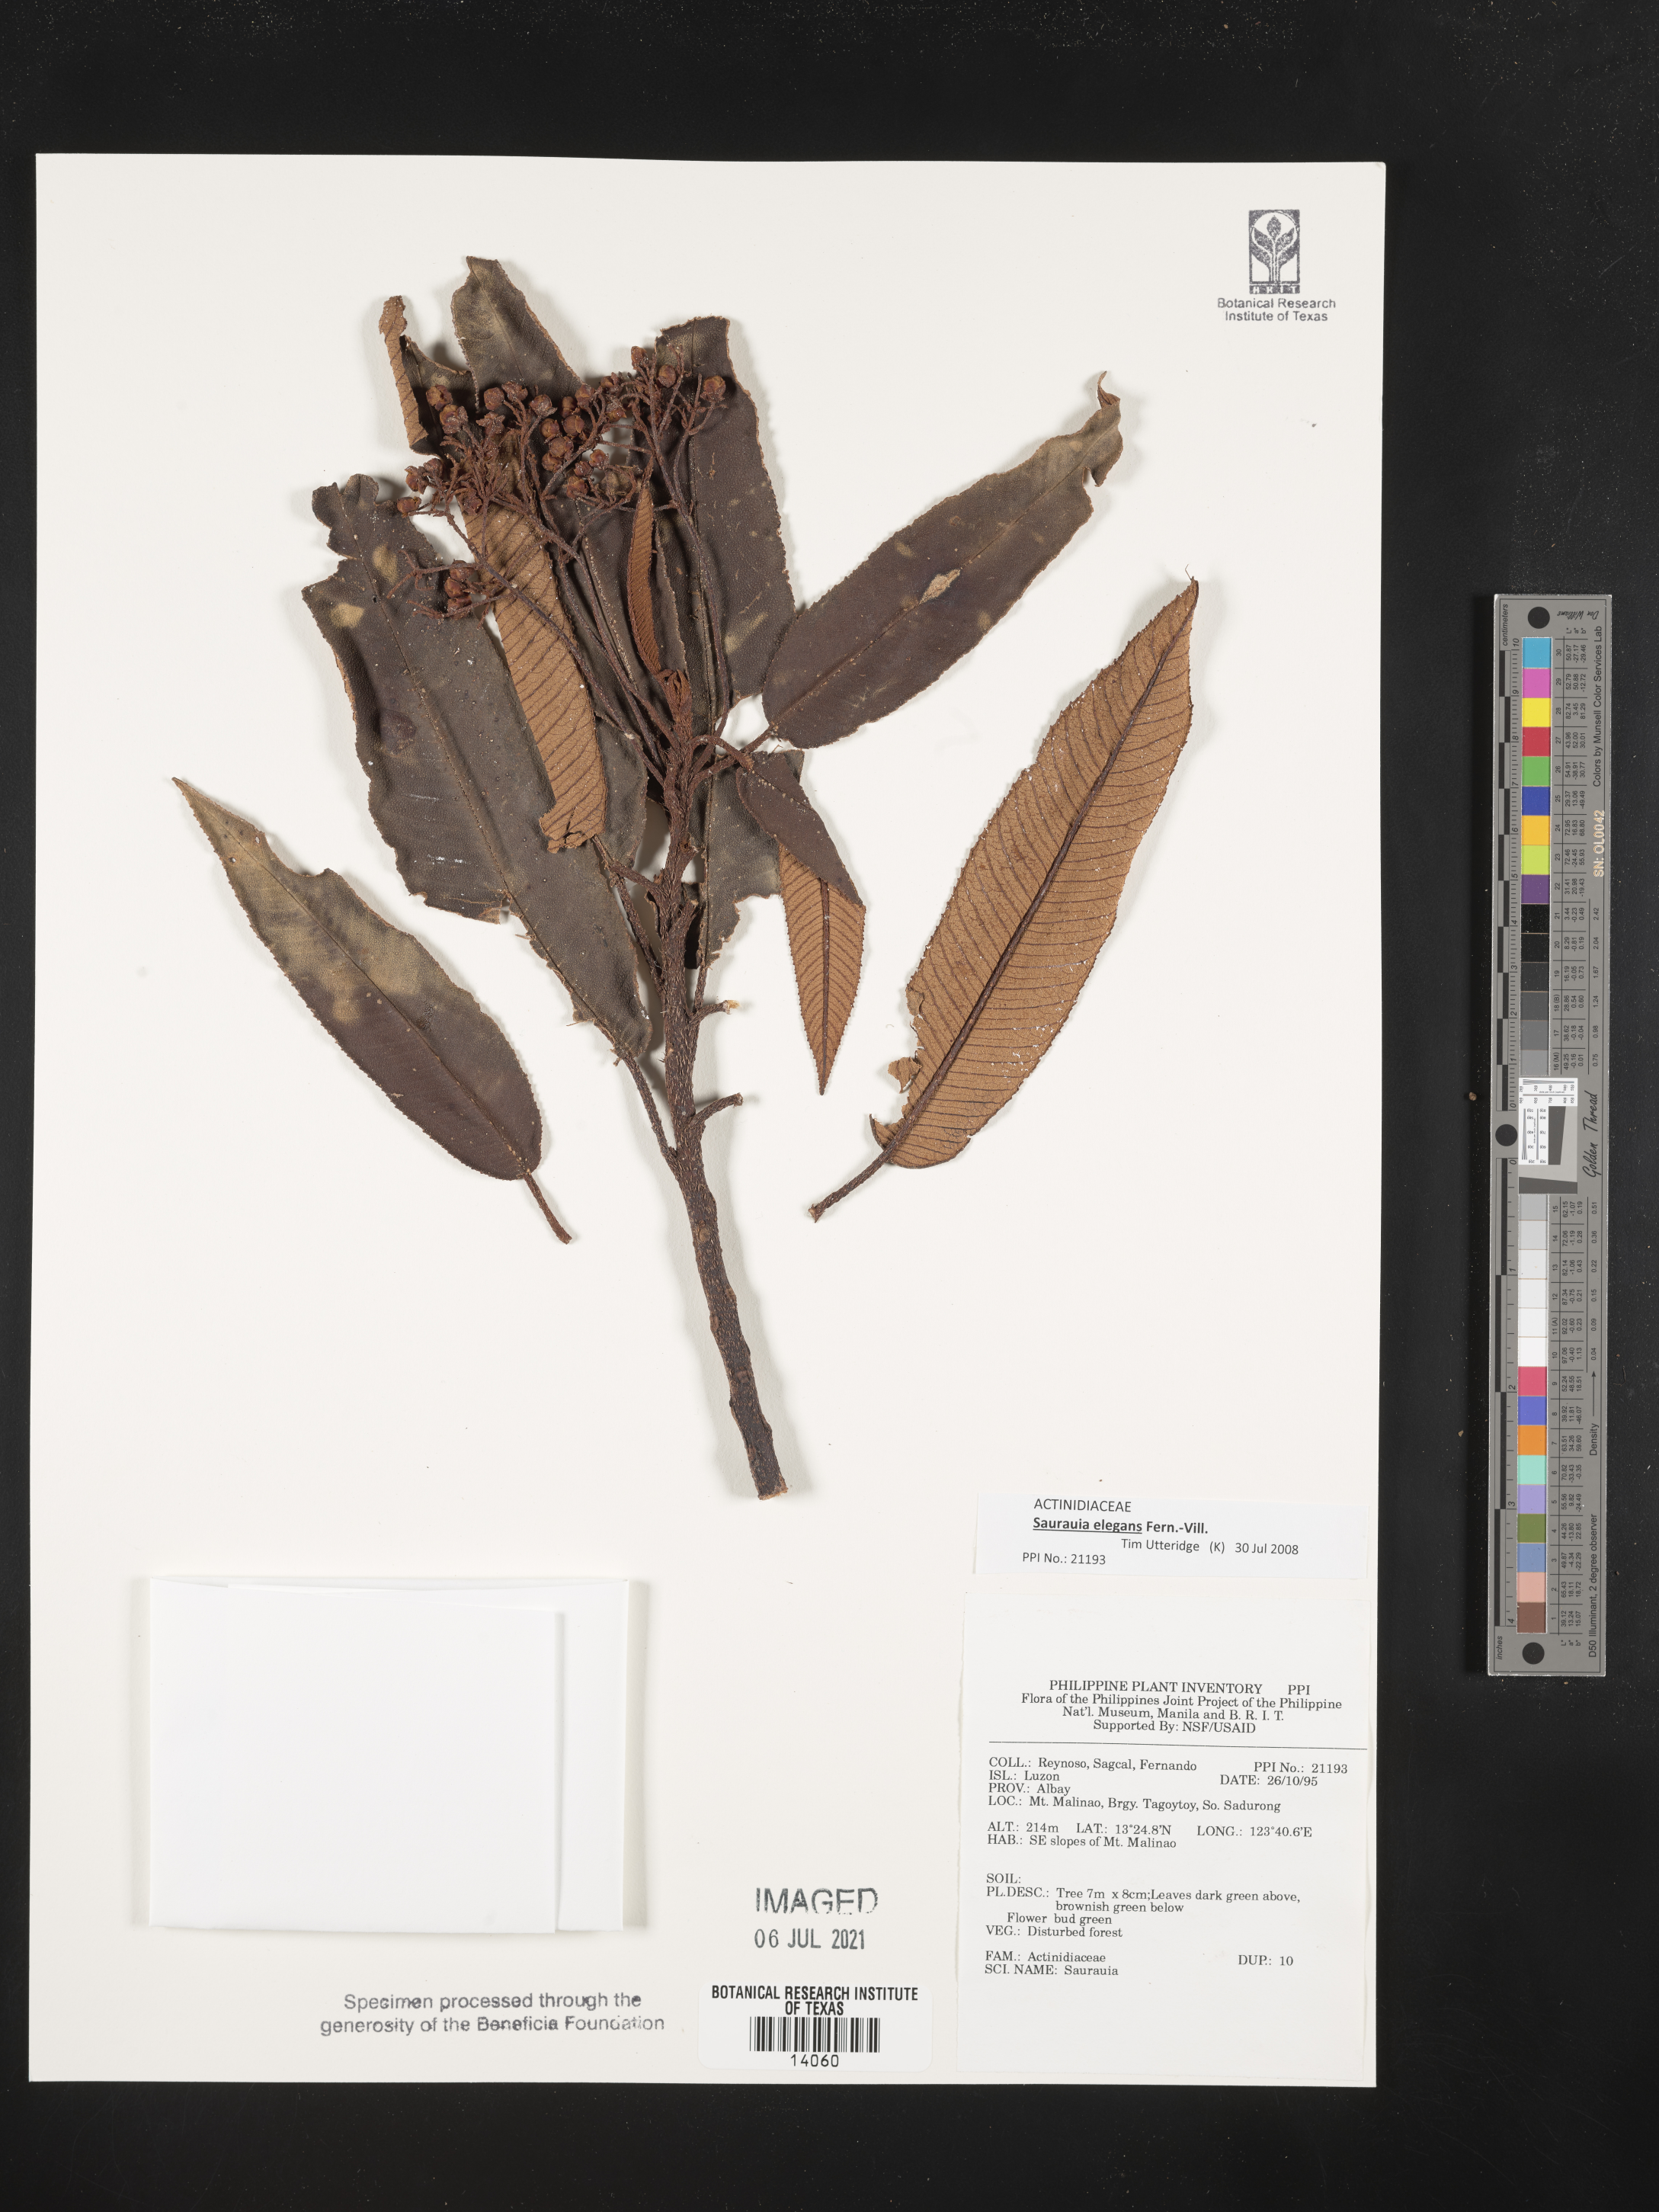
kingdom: Plantae
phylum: Tracheophyta
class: Magnoliopsida
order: Ericales
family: Actinidiaceae
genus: Saurauia
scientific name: Saurauia
